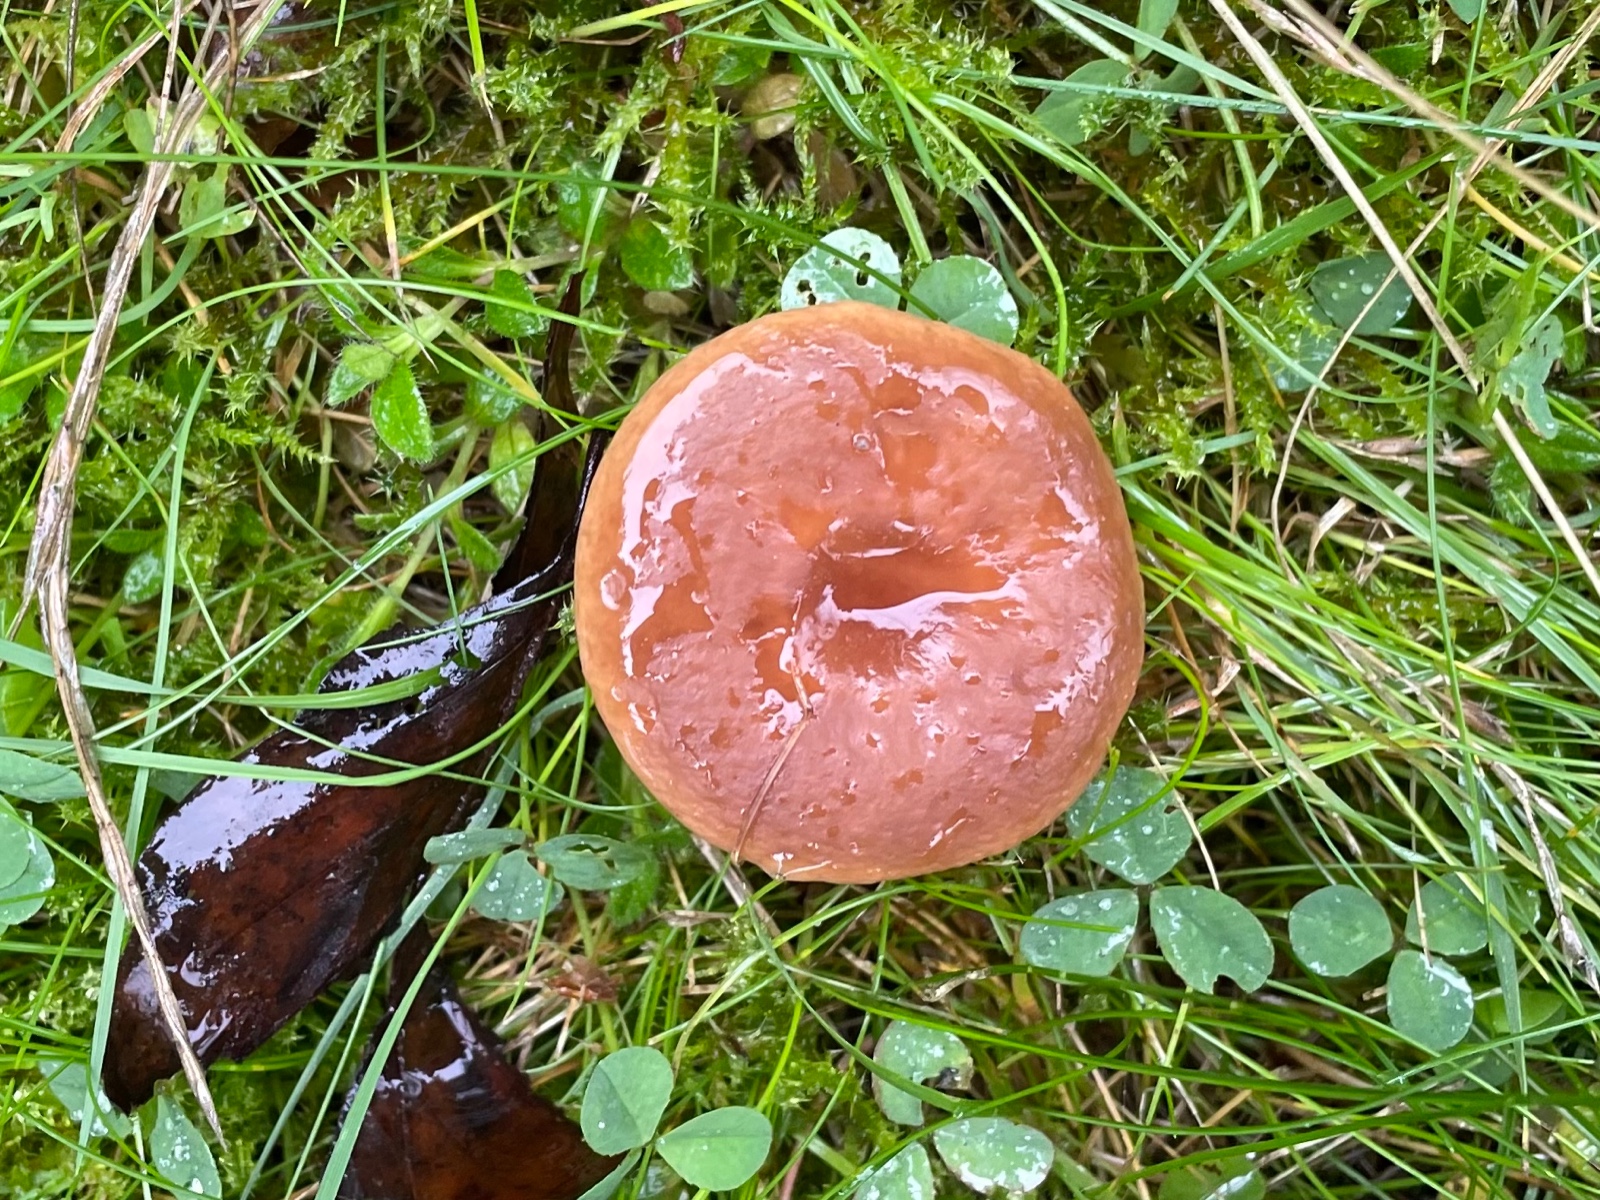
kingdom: Fungi
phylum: Basidiomycota
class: Agaricomycetes
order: Russulales
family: Russulaceae
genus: Lactarius
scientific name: Lactarius subdulcis
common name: sødlig mælkehat
